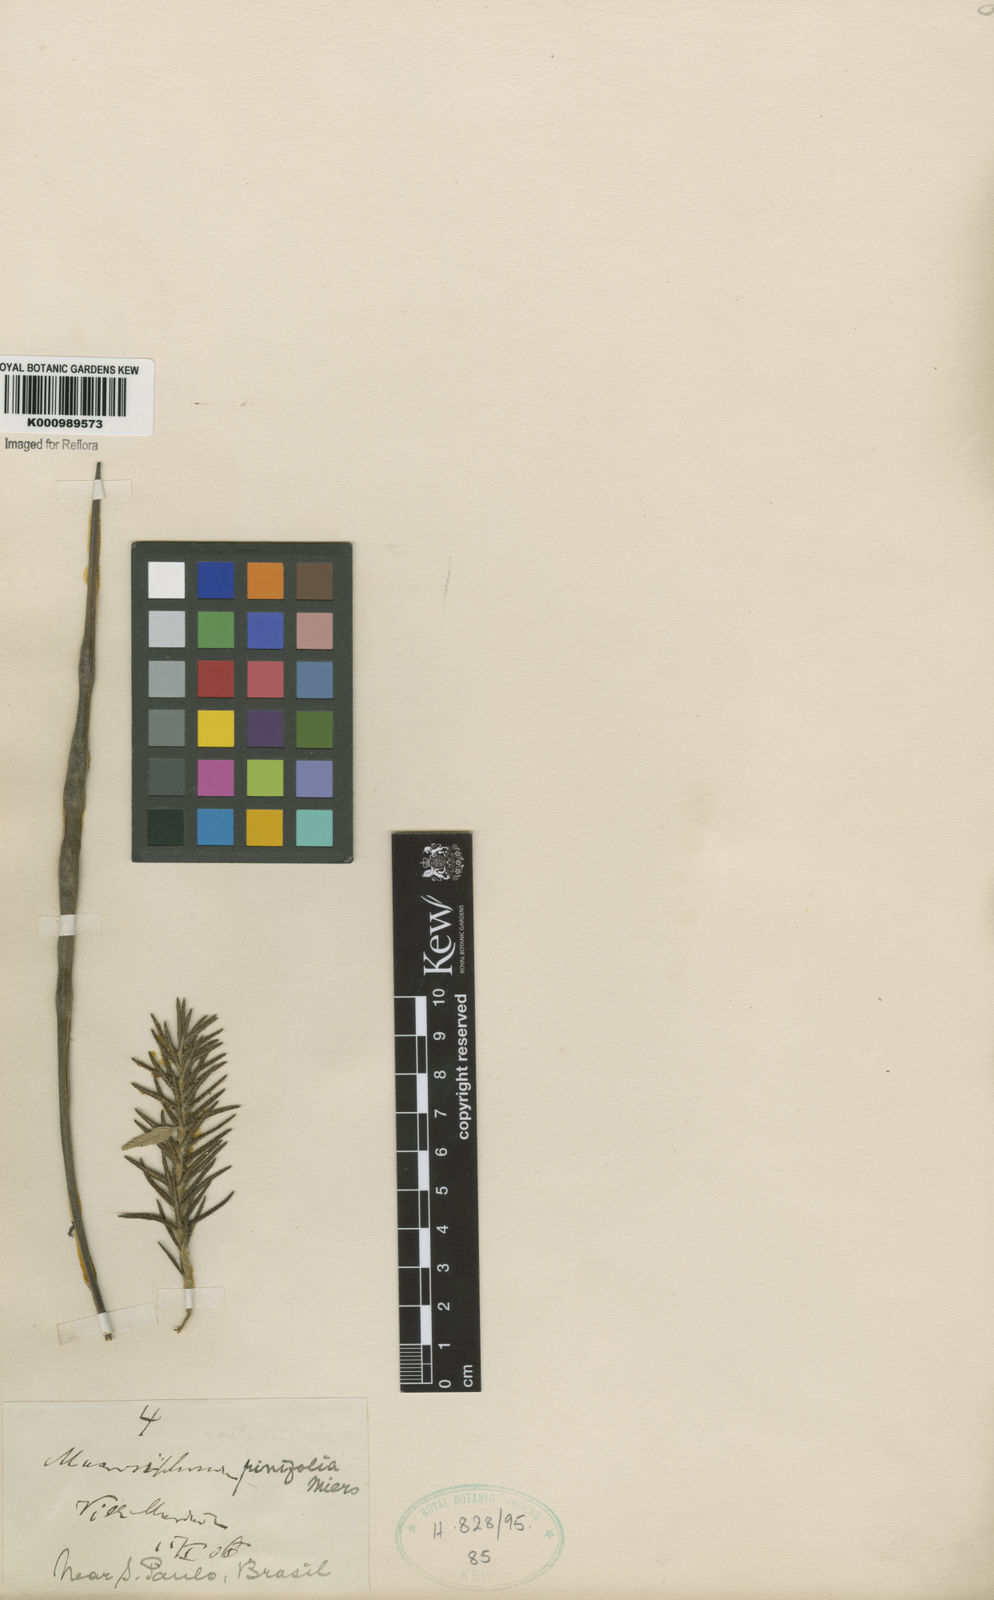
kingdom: Plantae
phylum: Tracheophyta
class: Magnoliopsida
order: Gentianales
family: Apocynaceae
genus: Mandevilla
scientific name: Mandevilla petraea
